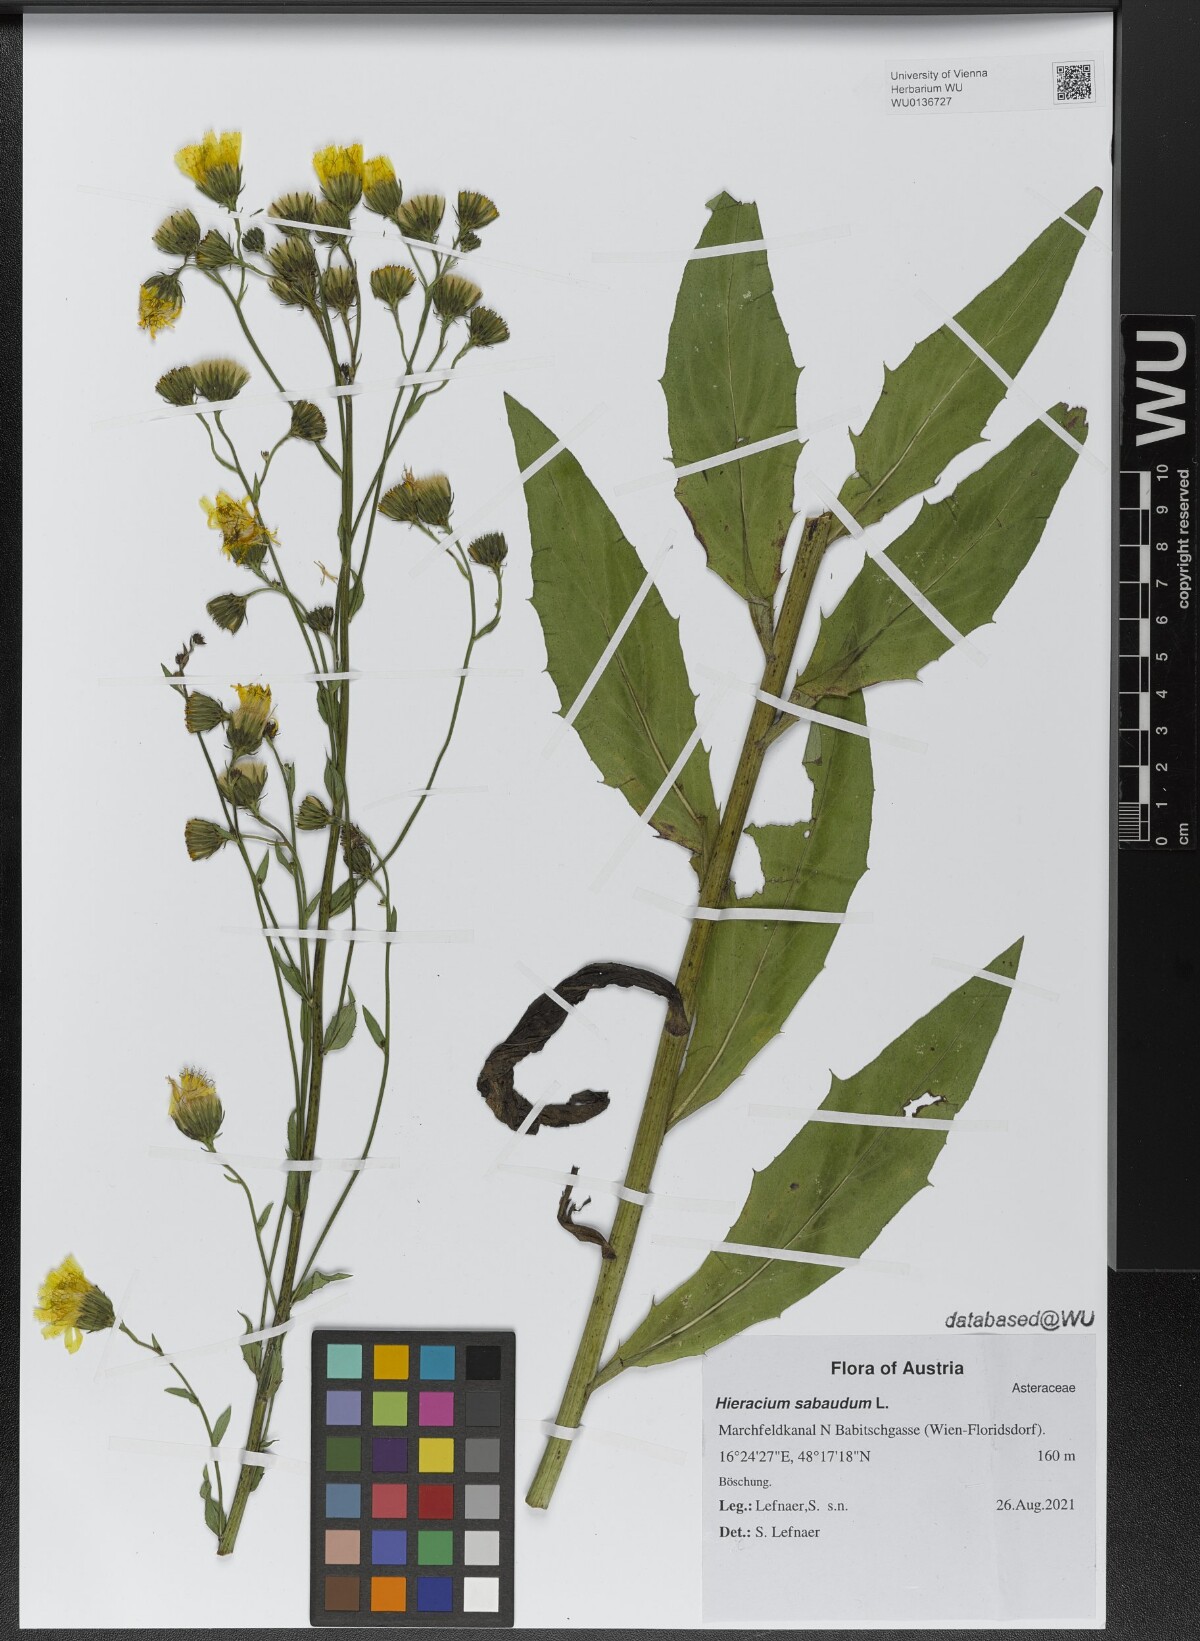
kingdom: Plantae
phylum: Tracheophyta
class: Magnoliopsida
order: Asterales
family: Asteraceae
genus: Hieracium
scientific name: Hieracium sabaudum
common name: New england hawkweed
